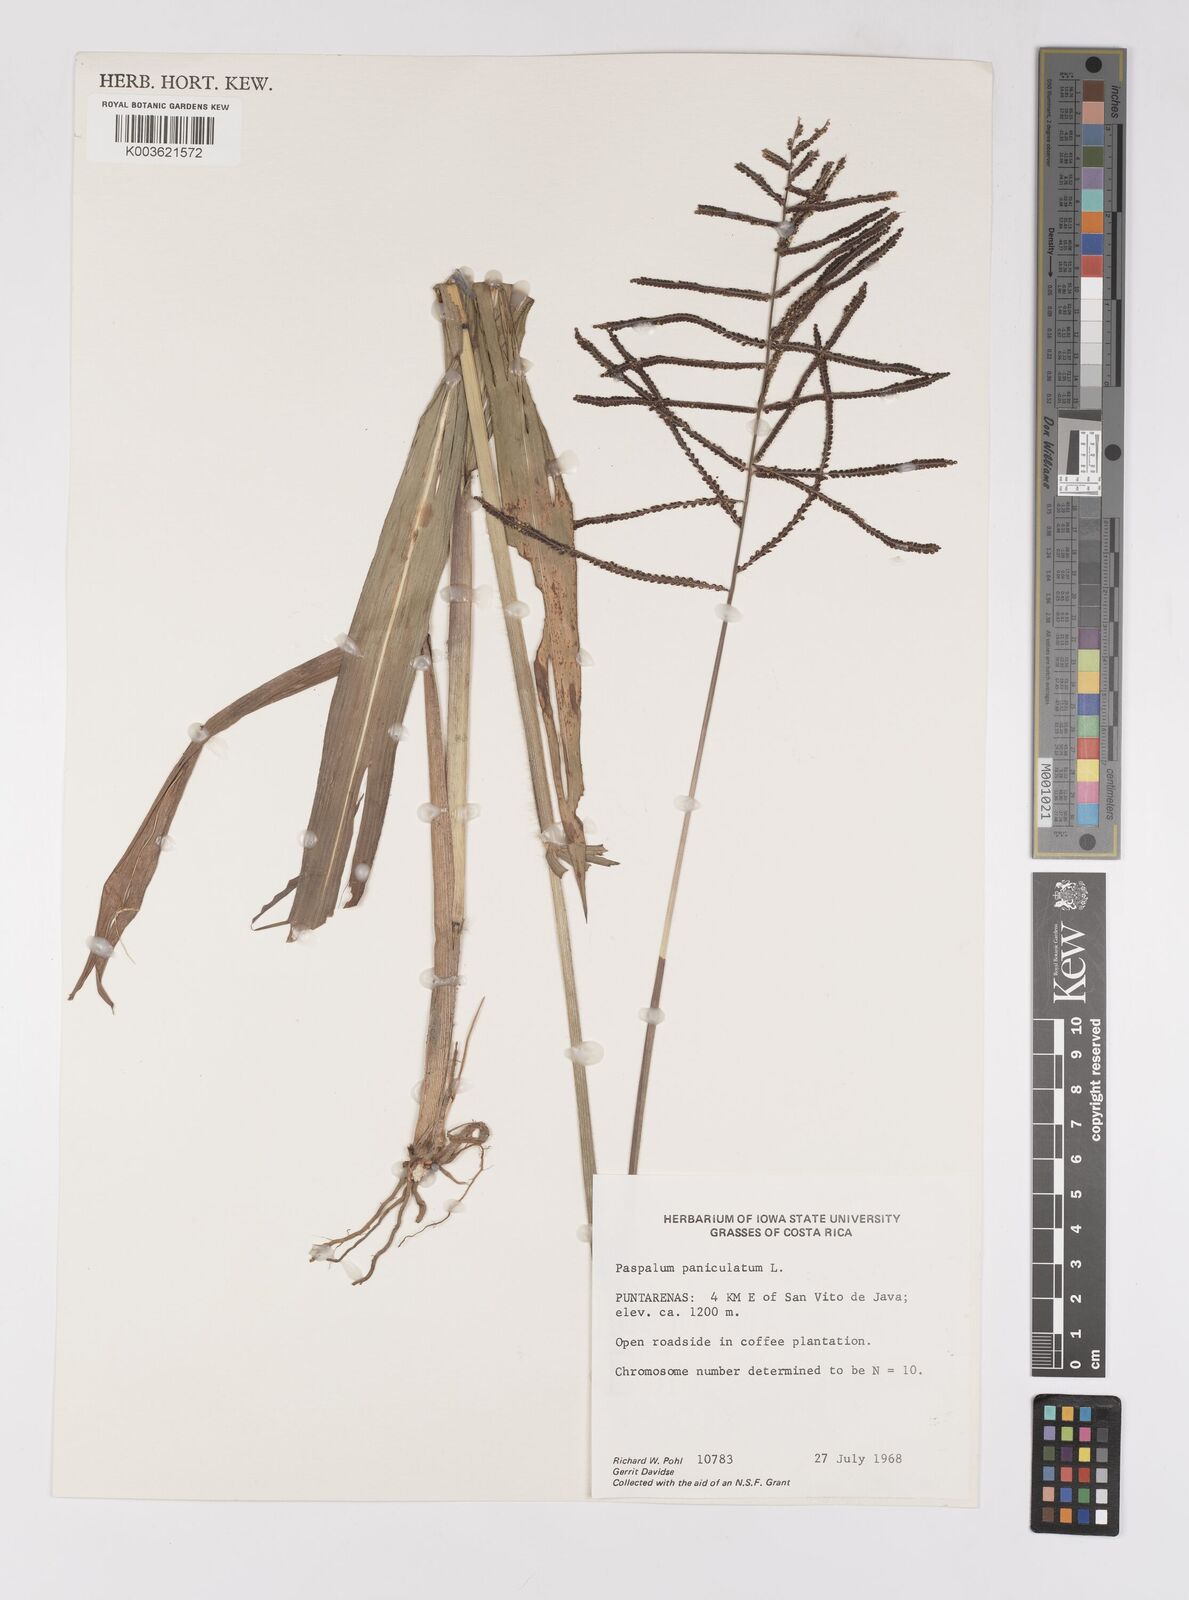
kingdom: Plantae
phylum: Tracheophyta
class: Liliopsida
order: Poales
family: Poaceae
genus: Paspalum
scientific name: Paspalum paniculatum
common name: Arrocillo
